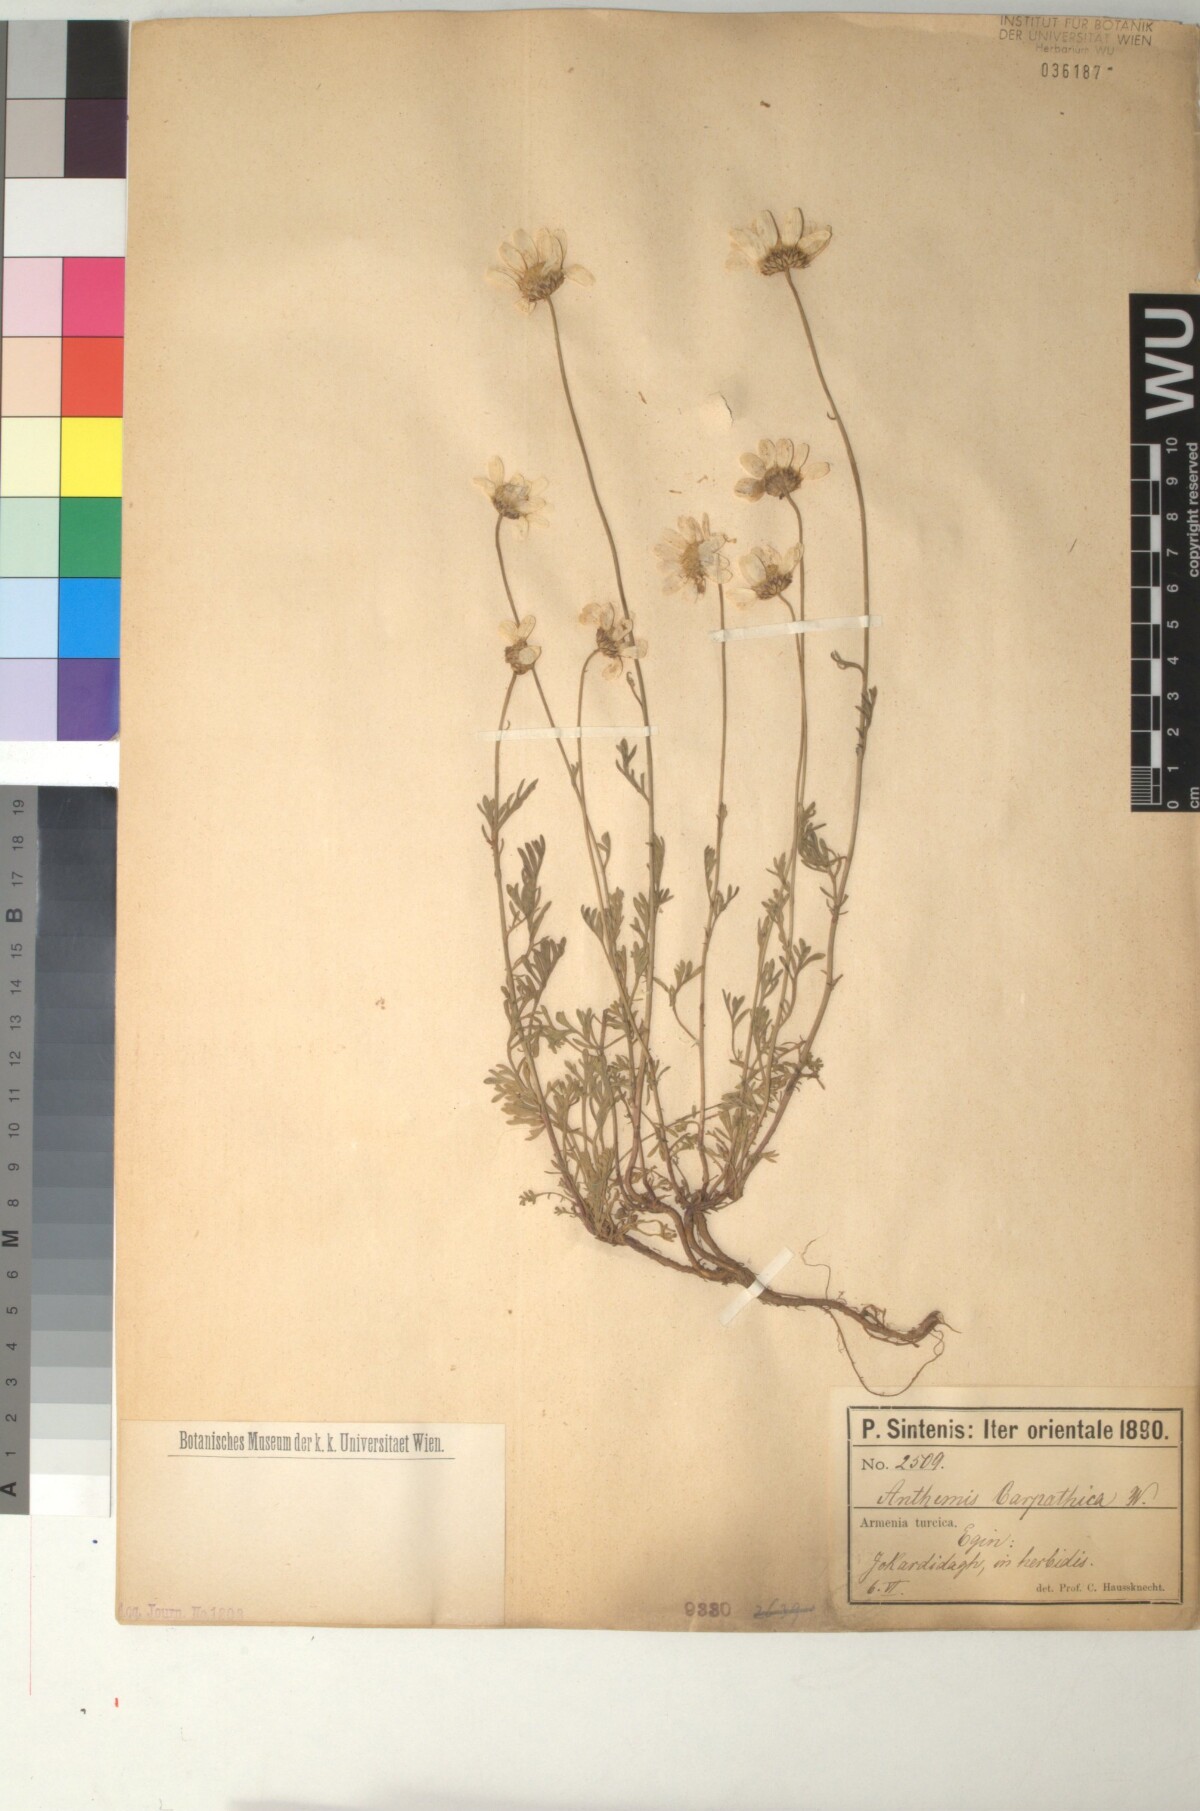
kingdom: Plantae
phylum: Tracheophyta
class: Magnoliopsida
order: Asterales
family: Asteraceae
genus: Anthemis
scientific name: Anthemis cretica
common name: Mountain dog-daisy
